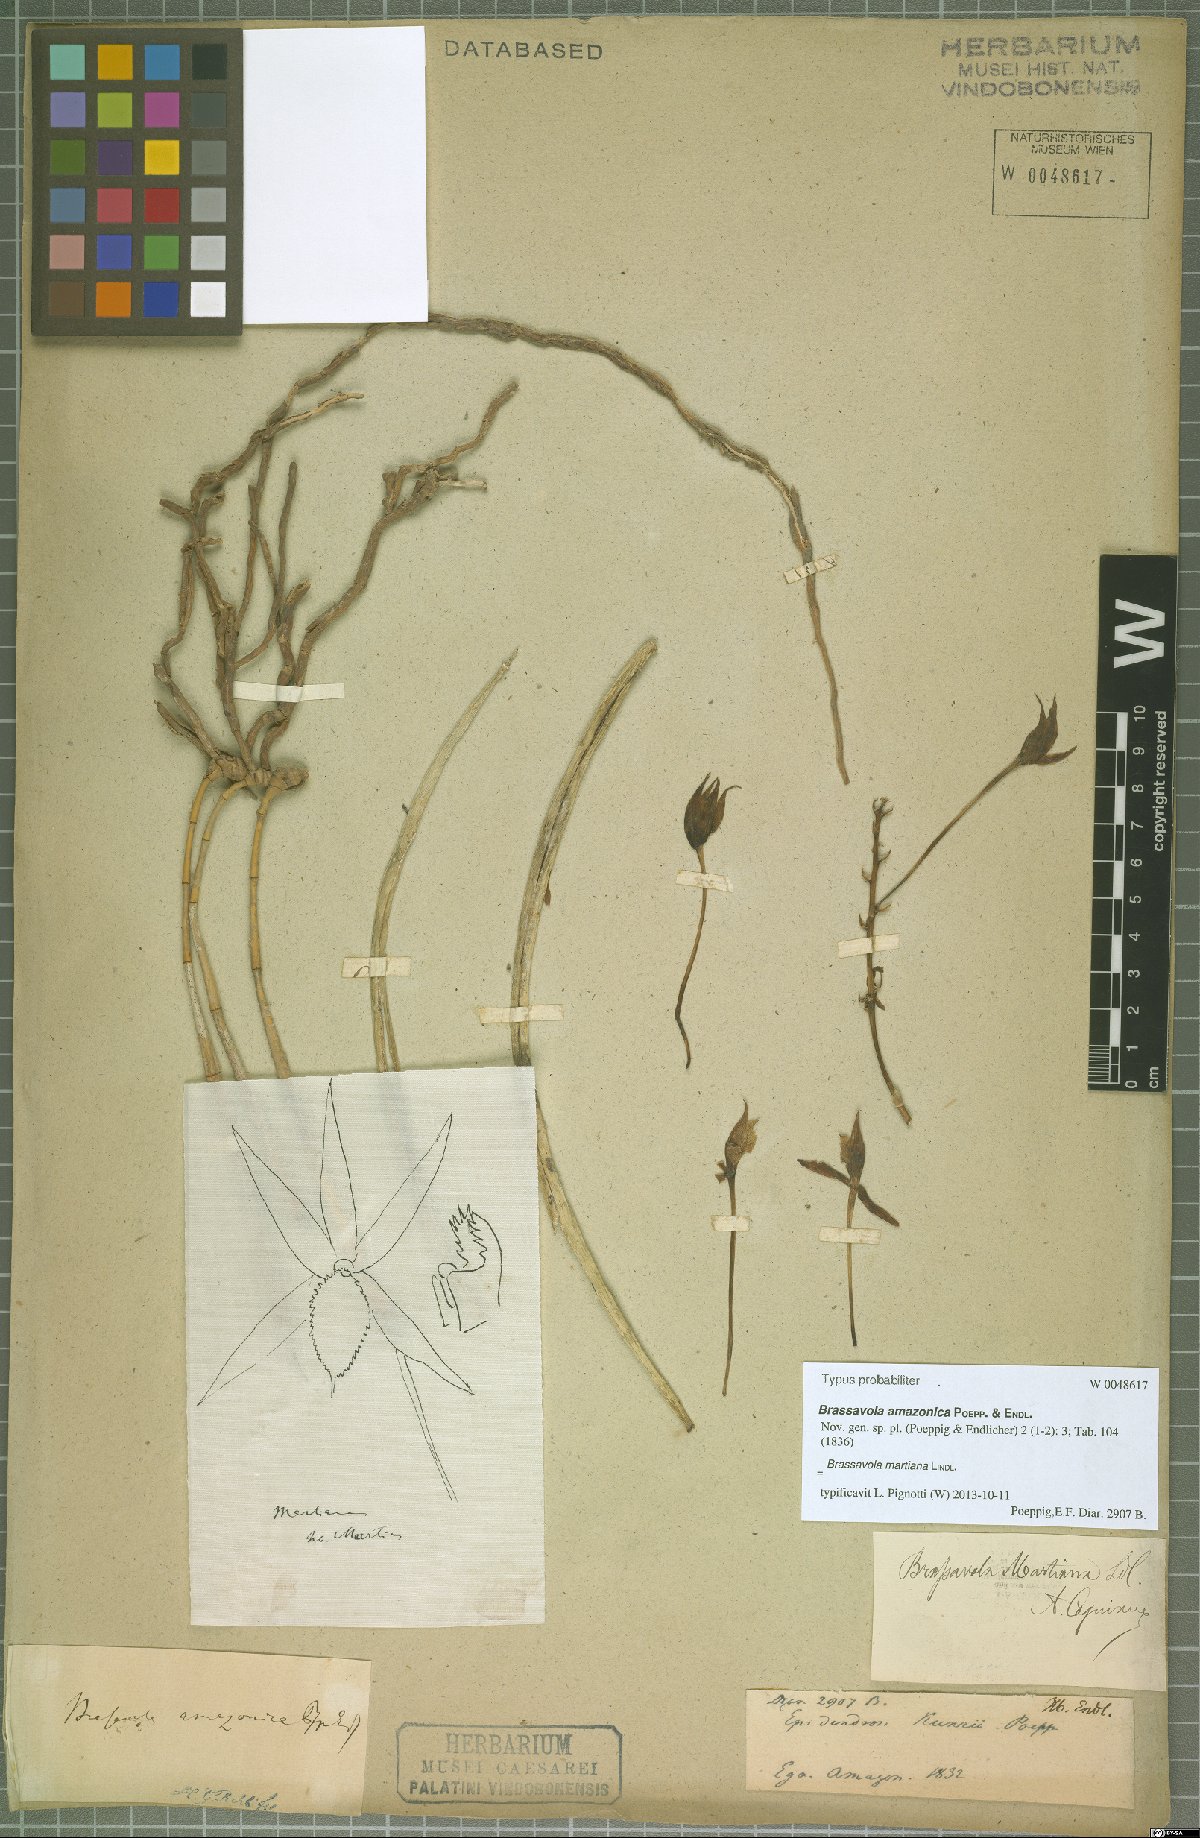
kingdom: Plantae
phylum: Tracheophyta
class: Liliopsida
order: Asparagales
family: Orchidaceae
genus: Brassavola
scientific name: Brassavola martiana
